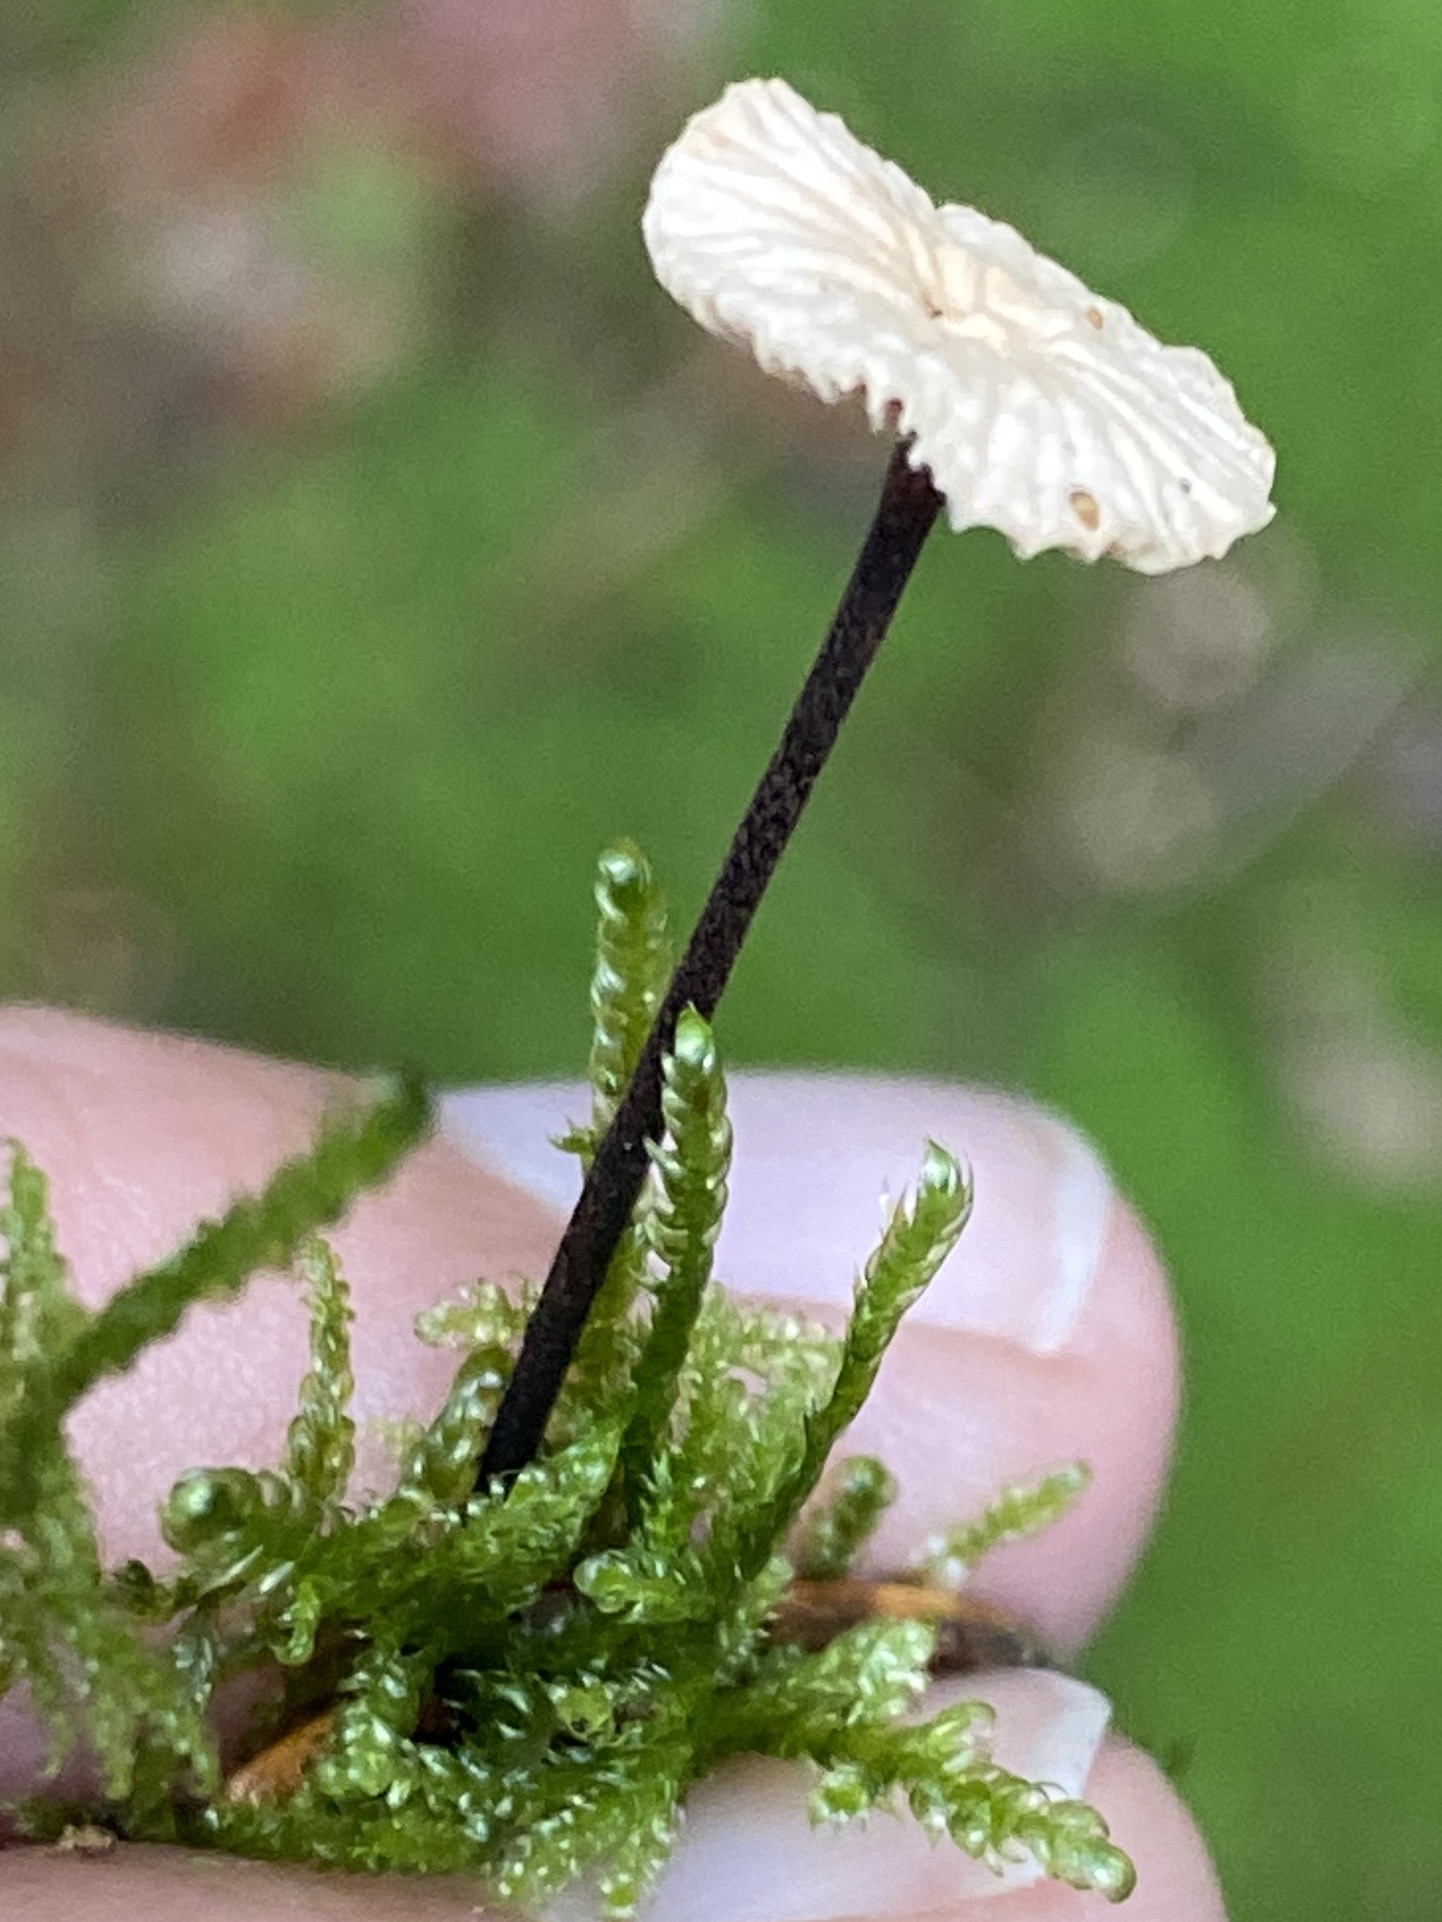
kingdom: Fungi
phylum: Basidiomycota
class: Agaricomycetes
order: Agaricales
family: Omphalotaceae
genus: Paragymnopus
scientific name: Paragymnopus perforans
